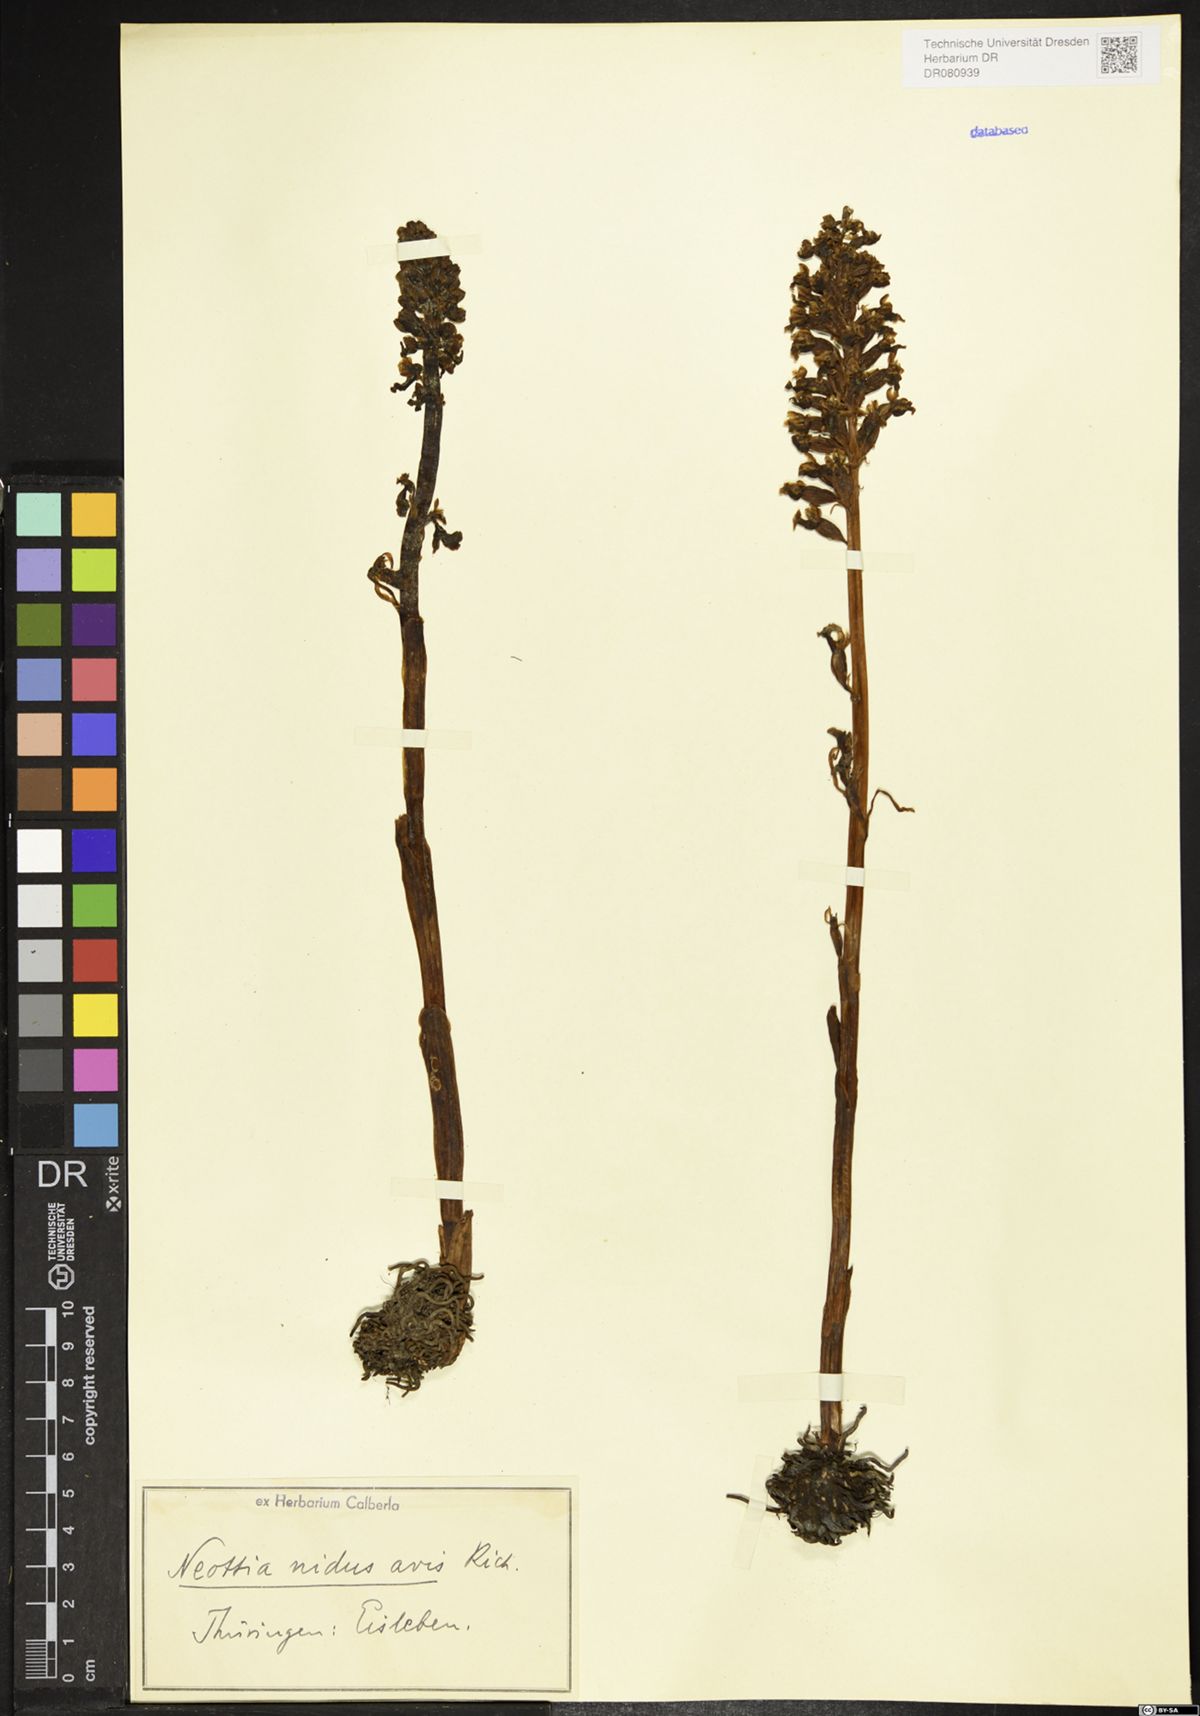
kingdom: Plantae
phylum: Tracheophyta
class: Liliopsida
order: Asparagales
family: Orchidaceae
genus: Neottia
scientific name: Neottia nidus-avis
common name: Bird's-nest orchid
